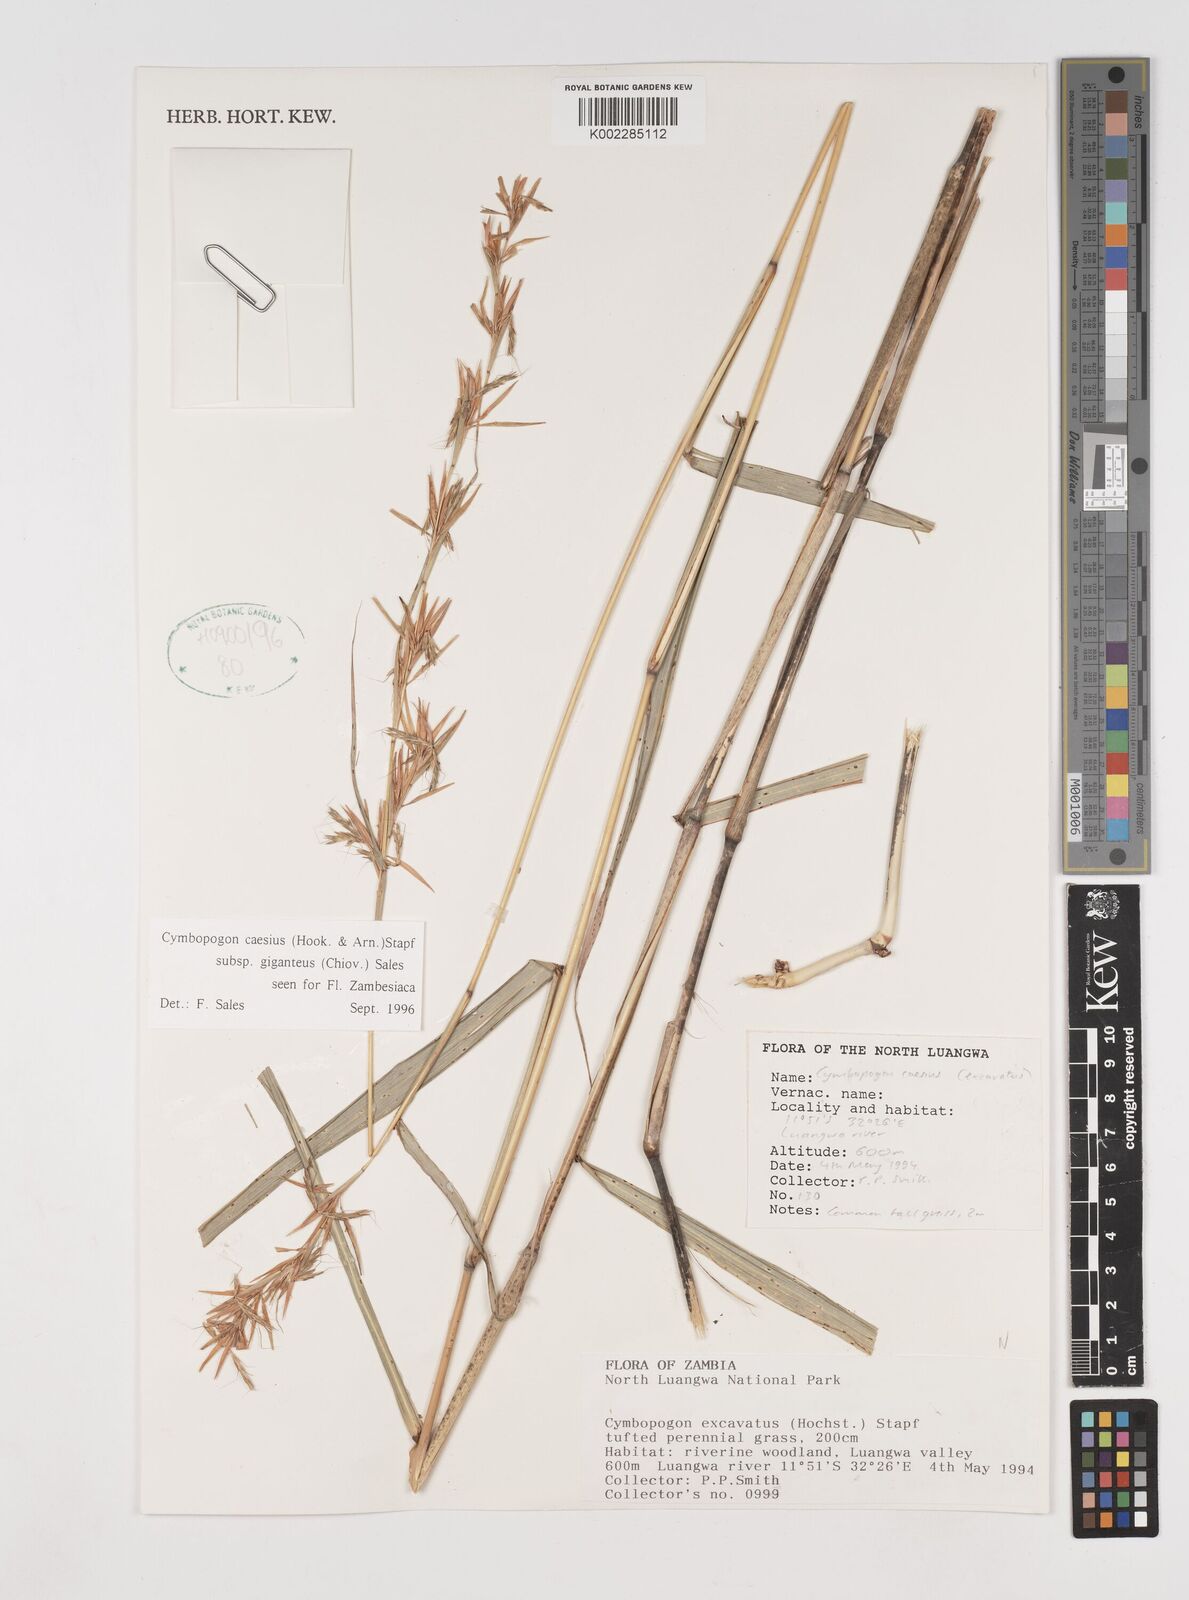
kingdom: Plantae
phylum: Tracheophyta
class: Liliopsida
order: Poales
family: Poaceae
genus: Cymbopogon
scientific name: Cymbopogon giganteus
